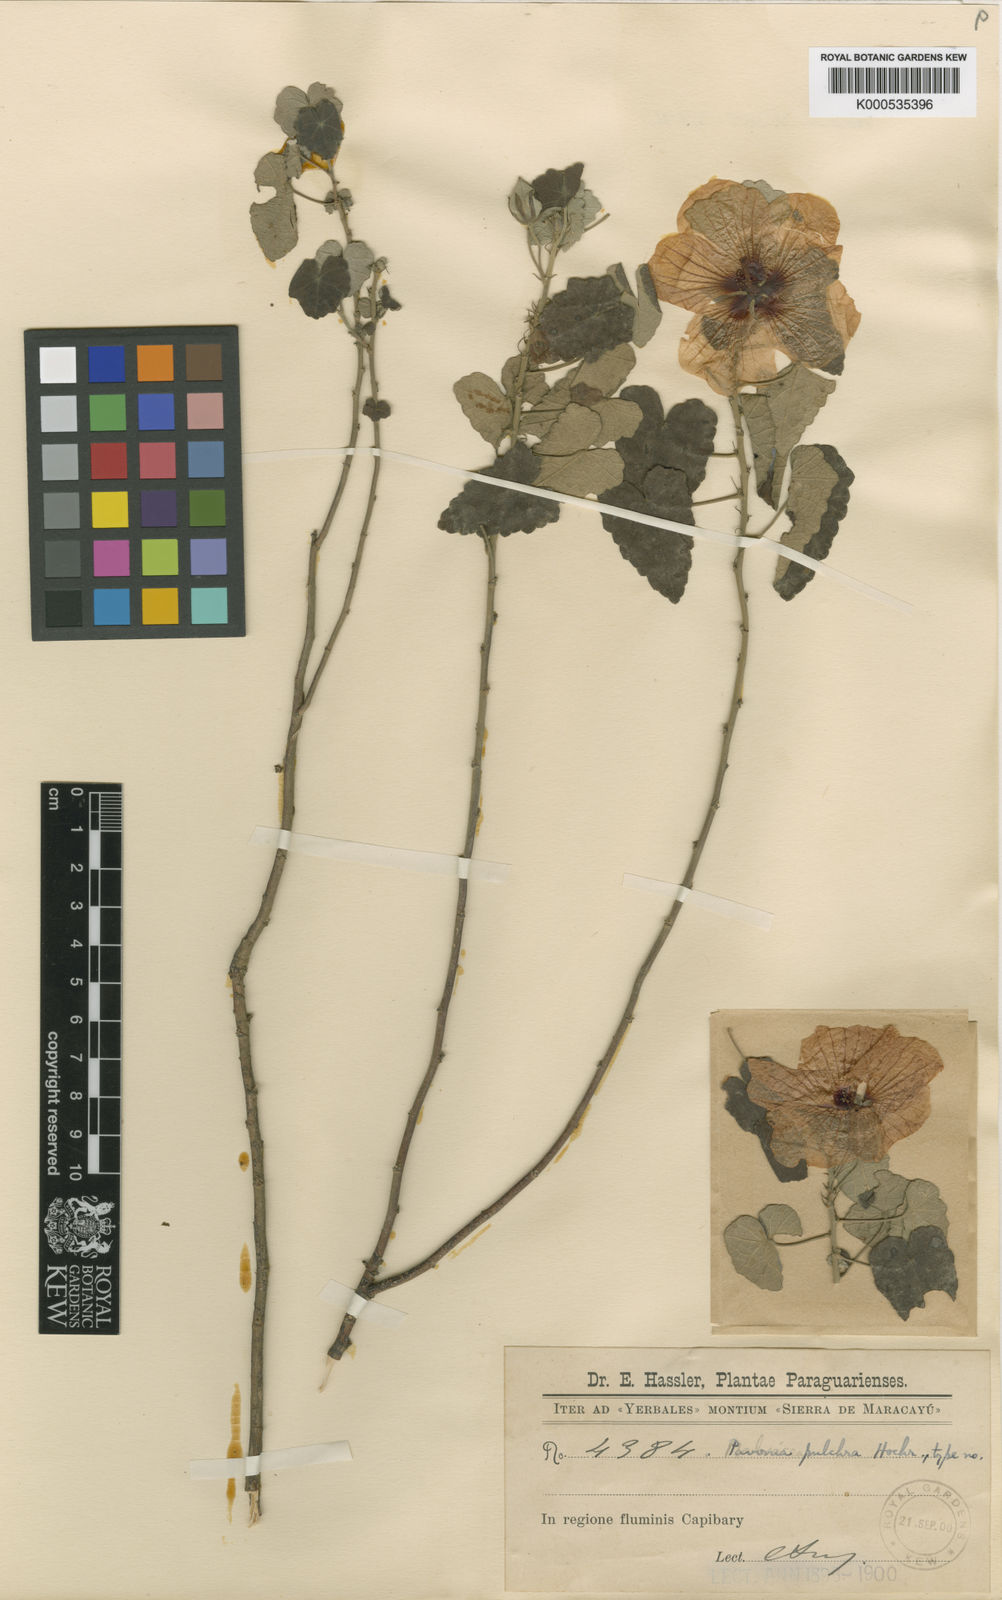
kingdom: Plantae
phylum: Tracheophyta
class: Magnoliopsida
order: Malvales
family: Malvaceae
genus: Pavonia
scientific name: Pavonia glutinosa
